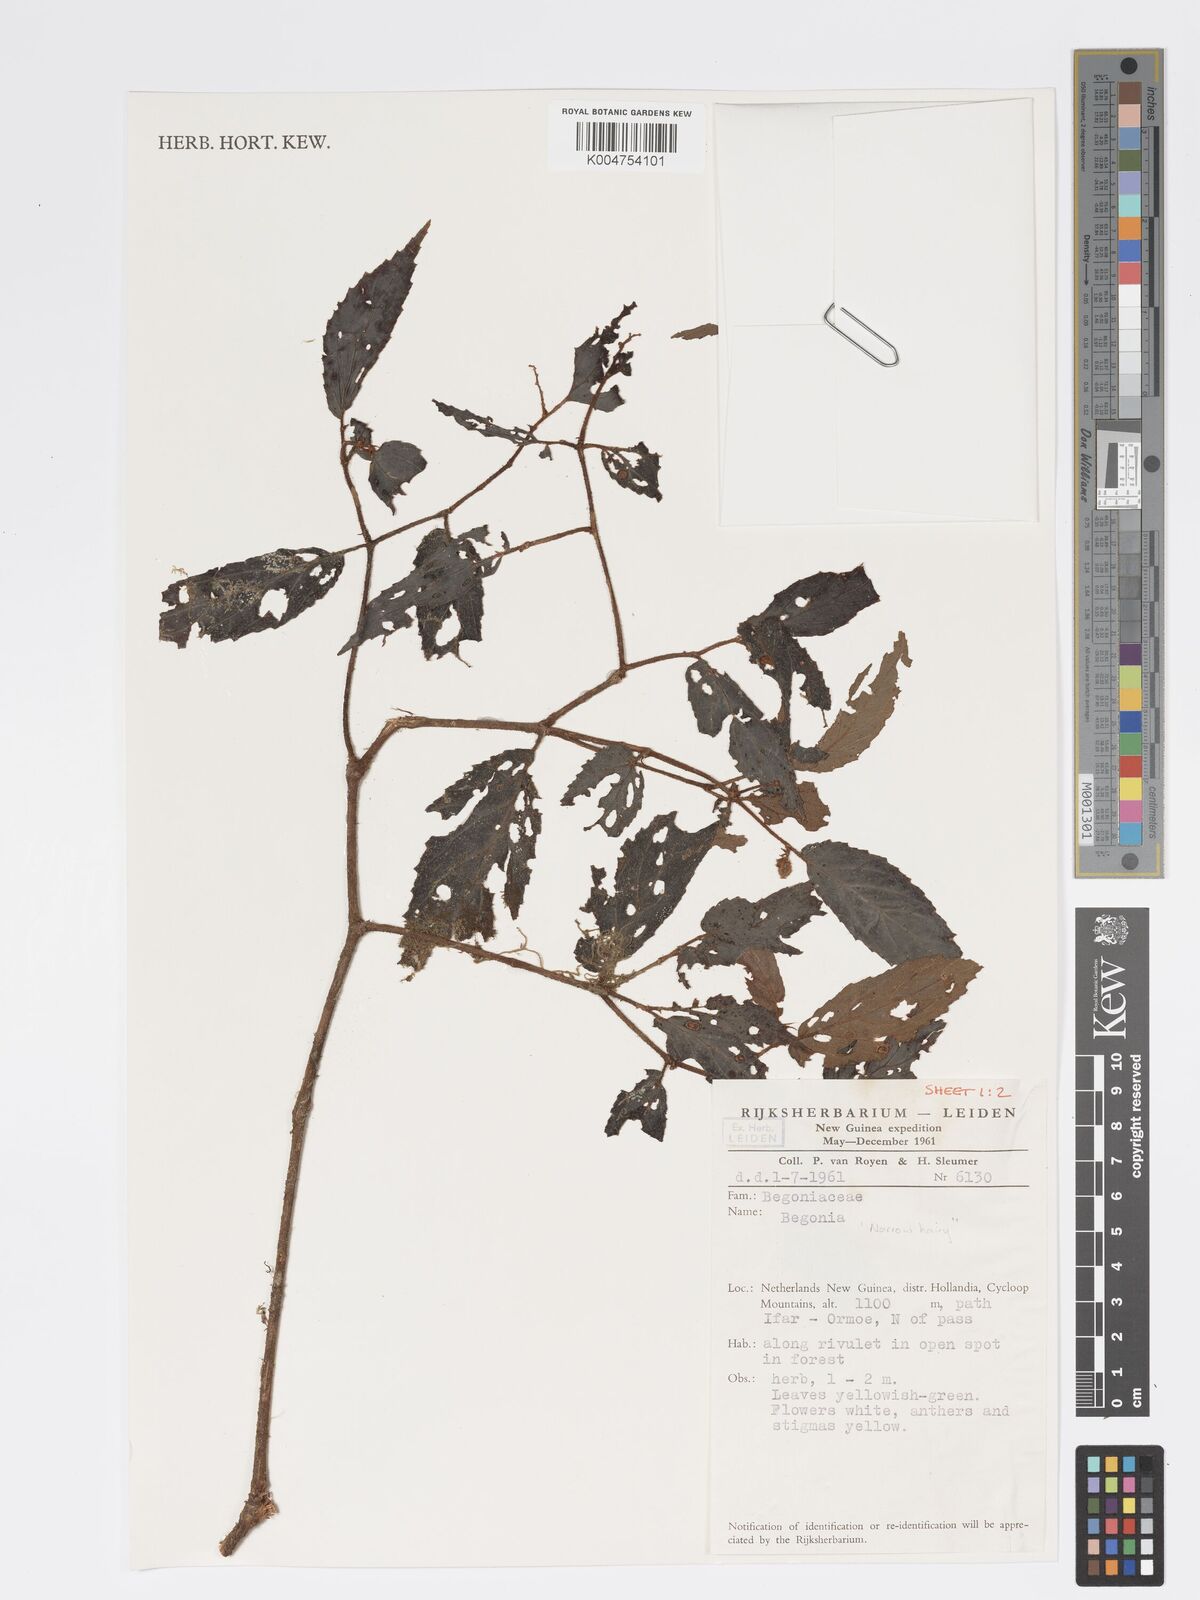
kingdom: Plantae
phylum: Tracheophyta
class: Magnoliopsida
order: Cucurbitales
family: Begoniaceae
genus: Begonia
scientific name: Begonia
